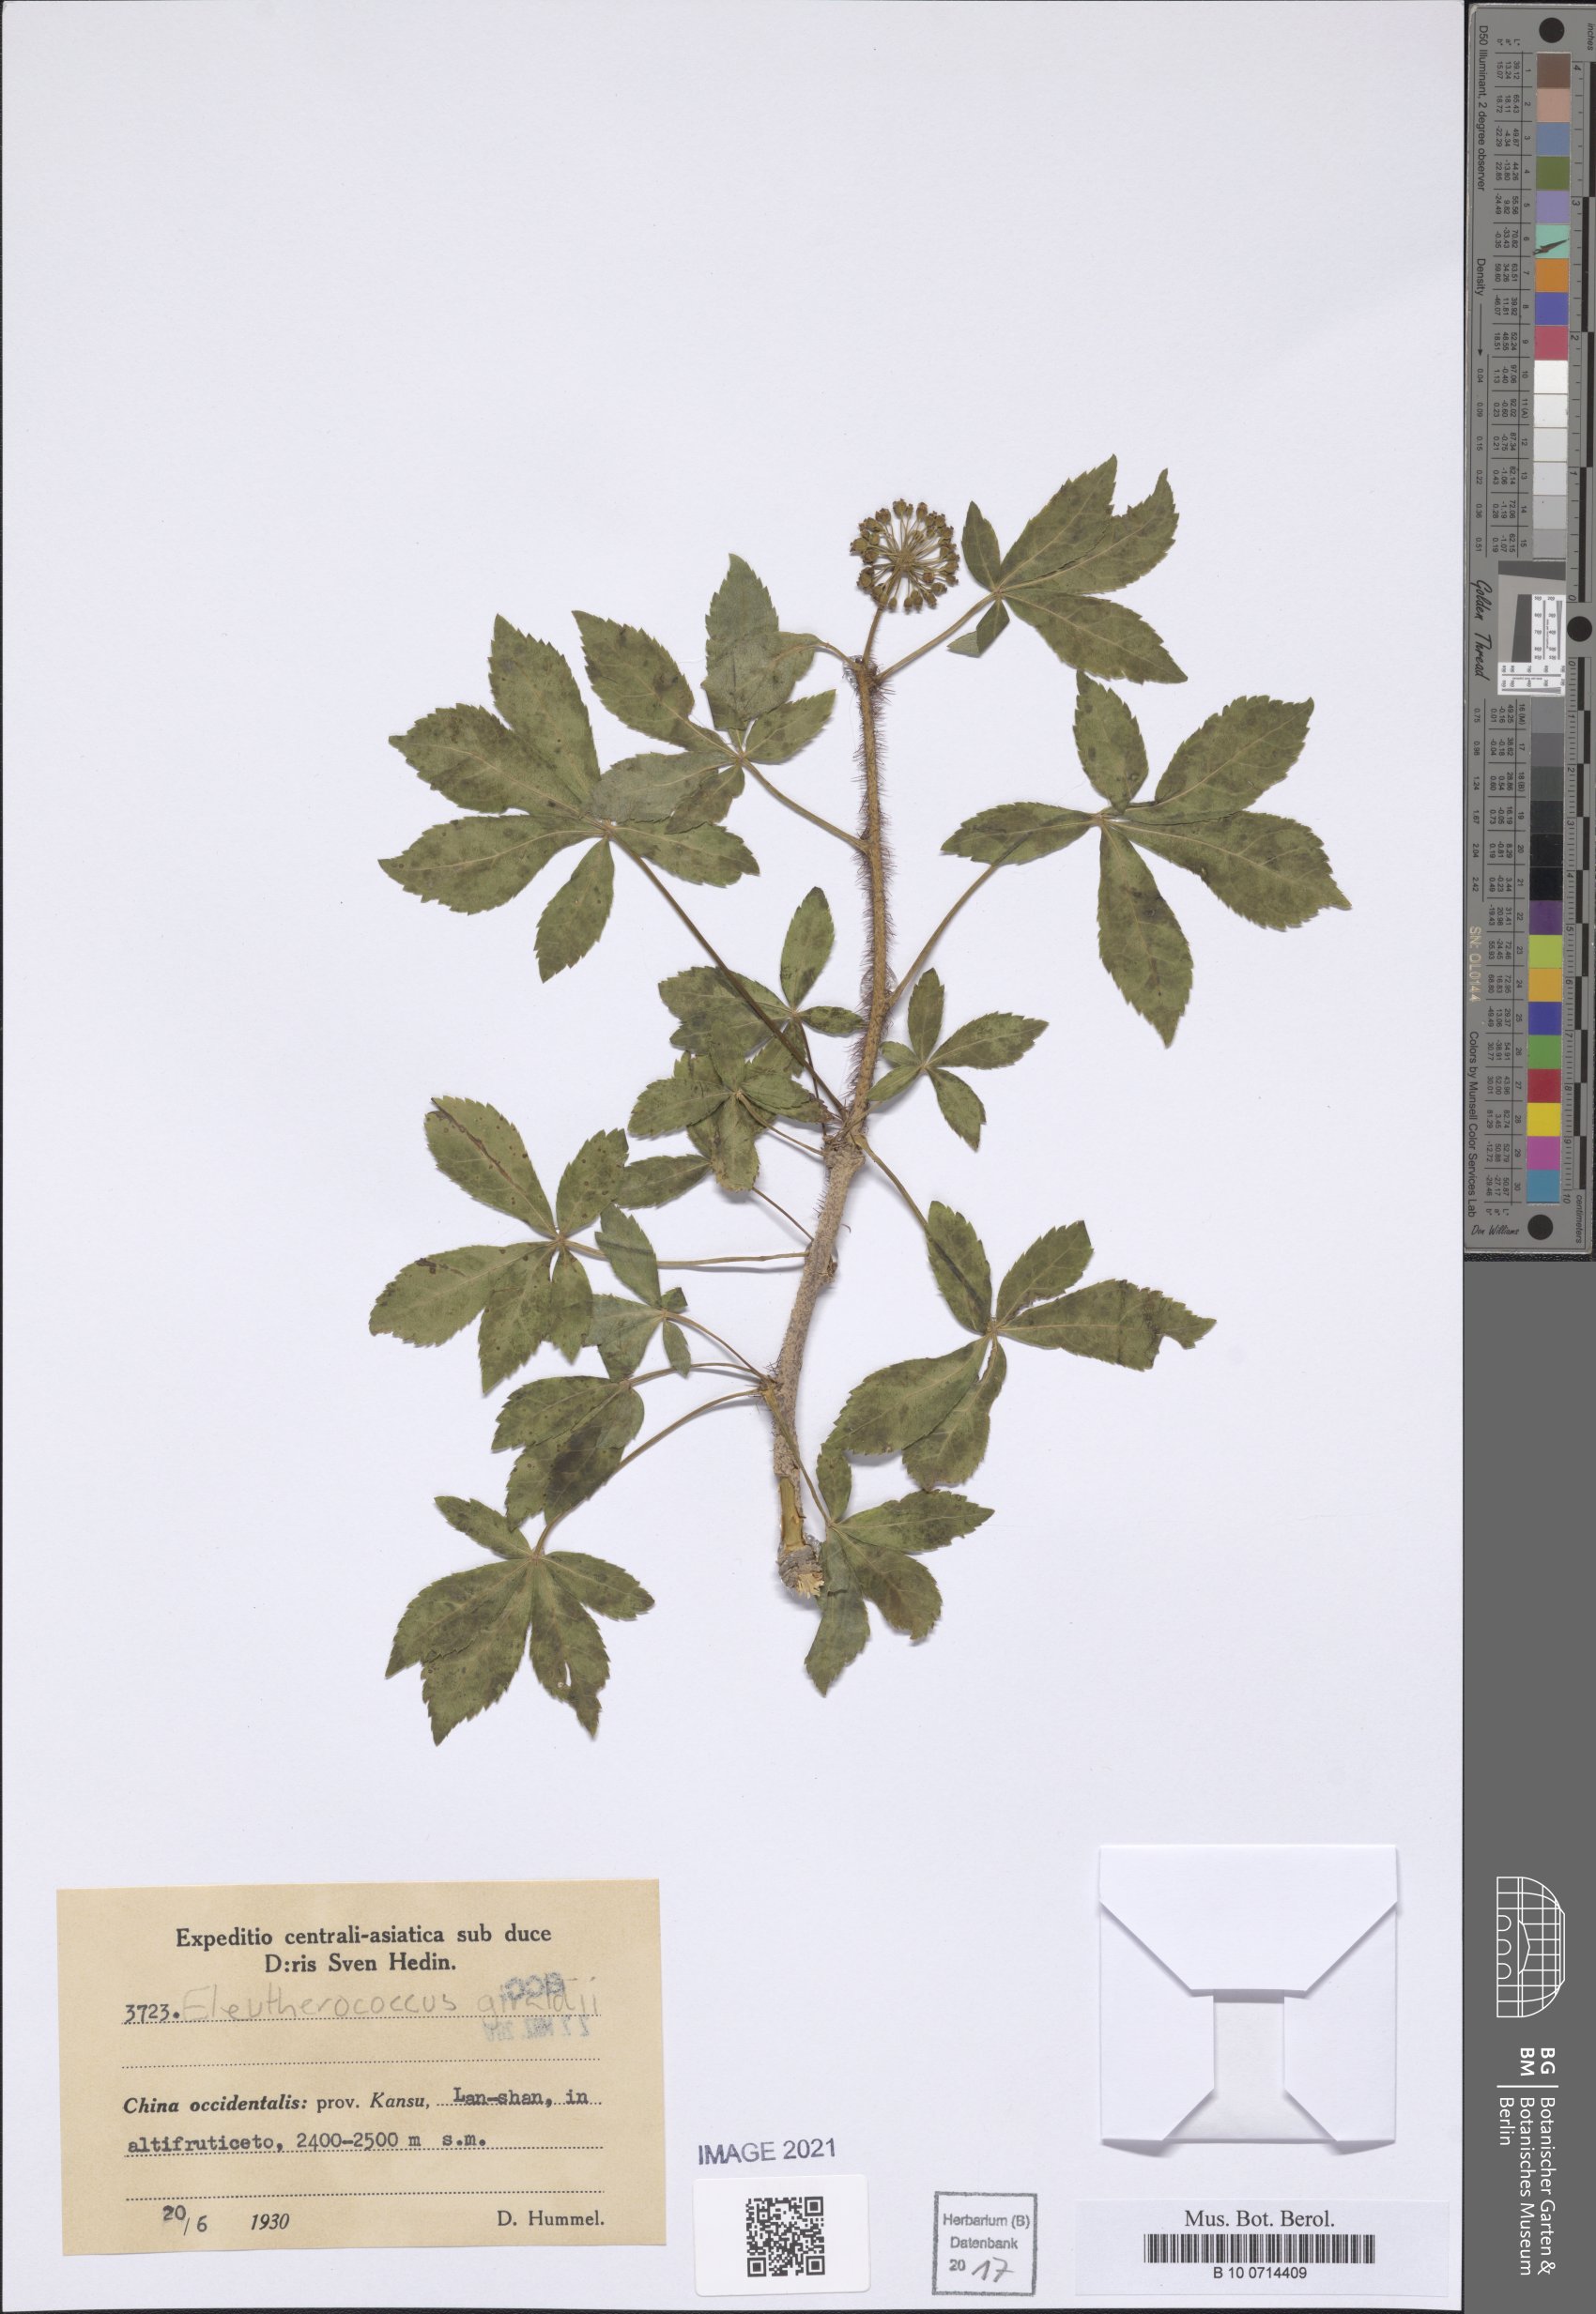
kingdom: Plantae
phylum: Tracheophyta
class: Magnoliopsida
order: Apiales
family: Araliaceae
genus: Eleutherococcus
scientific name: Eleutherococcus giraldii
